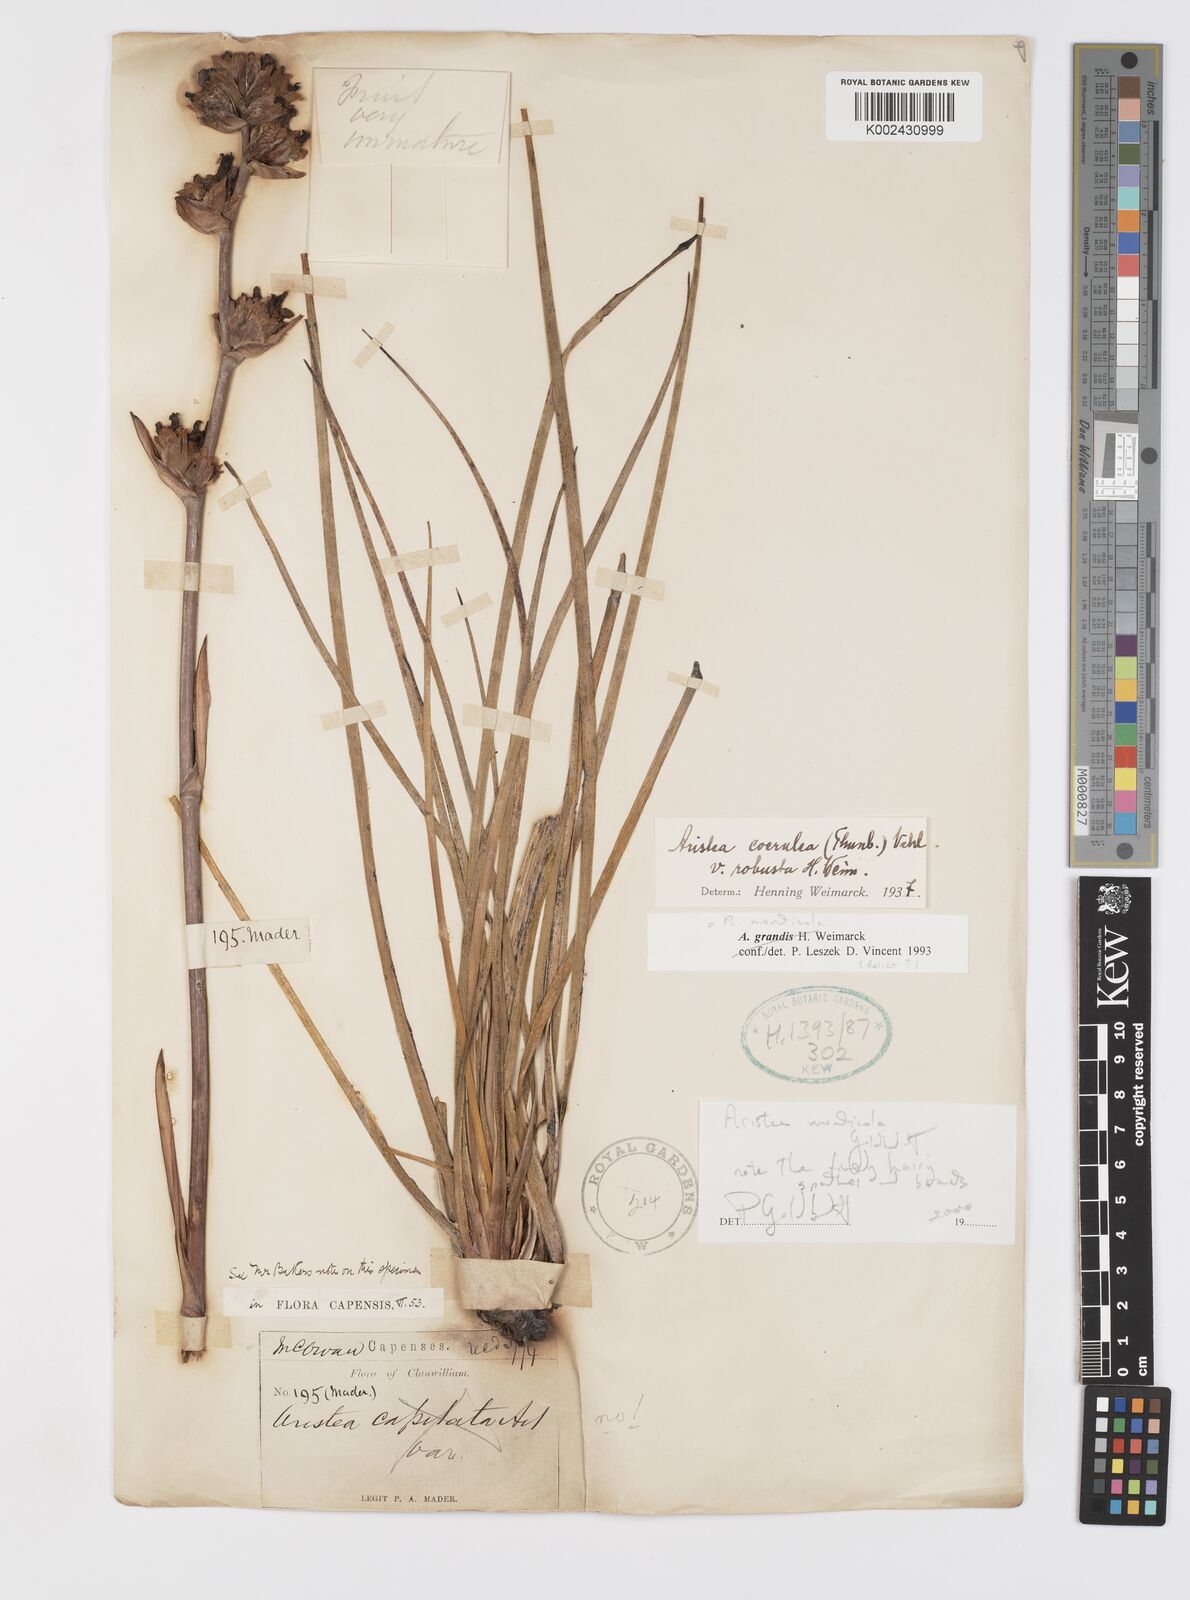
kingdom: Plantae
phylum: Tracheophyta
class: Liliopsida
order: Asparagales
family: Iridaceae
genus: Aristea
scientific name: Aristea monticola
